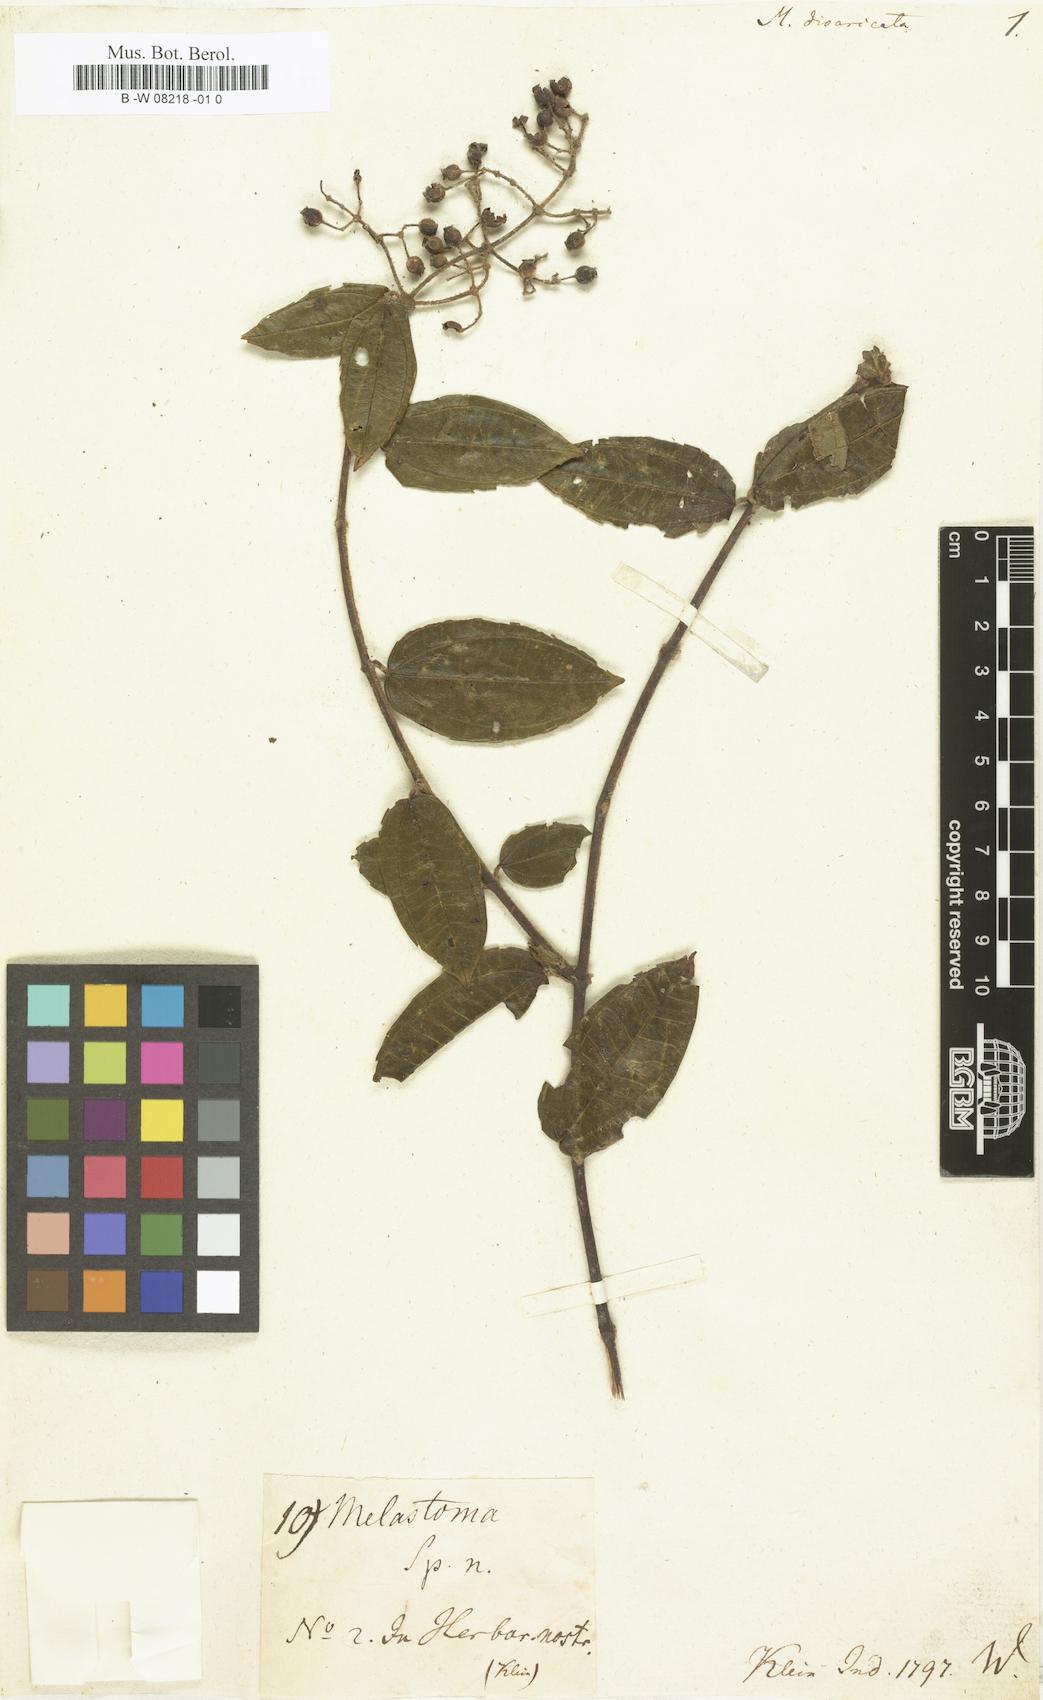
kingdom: Plantae
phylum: Tracheophyta
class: Magnoliopsida
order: Myrtales
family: Melastomataceae
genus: Diplectria
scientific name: Diplectria divaricata
